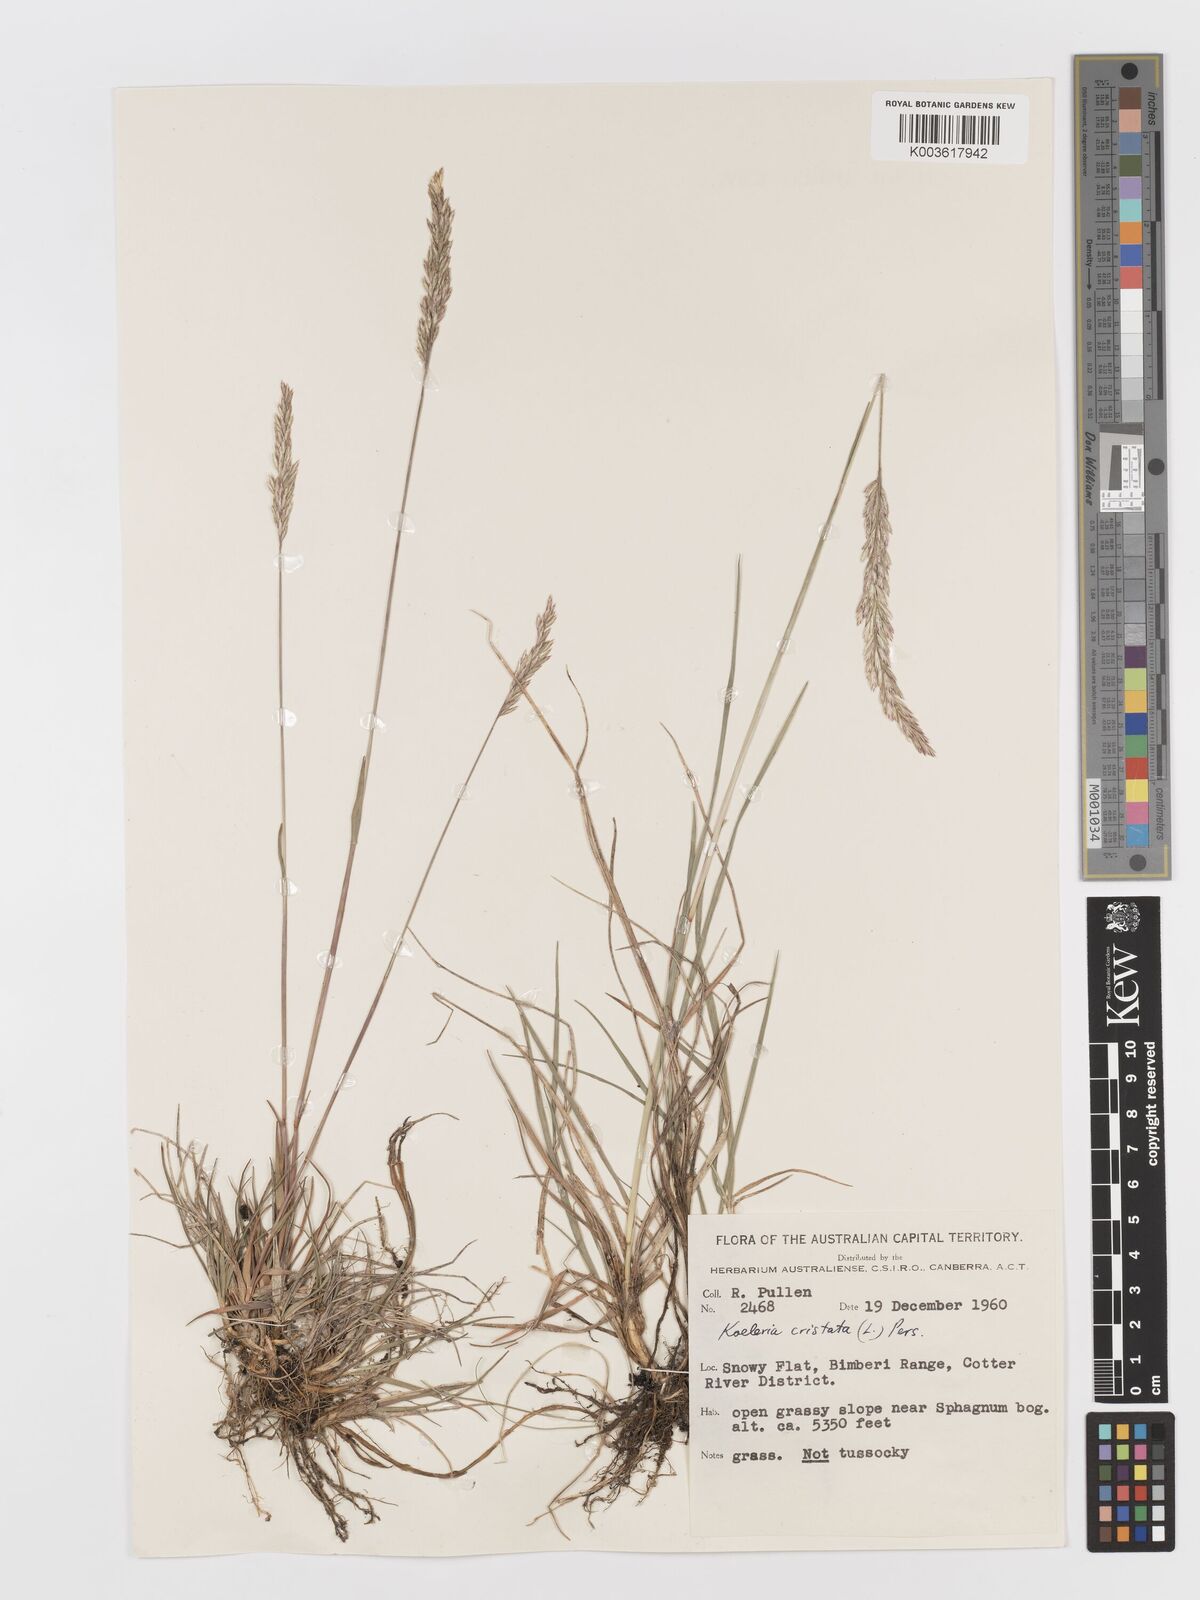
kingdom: Plantae
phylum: Tracheophyta
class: Liliopsida
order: Poales
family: Poaceae
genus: Koeleria
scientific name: Koeleria macrantha
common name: Crested hair-grass
